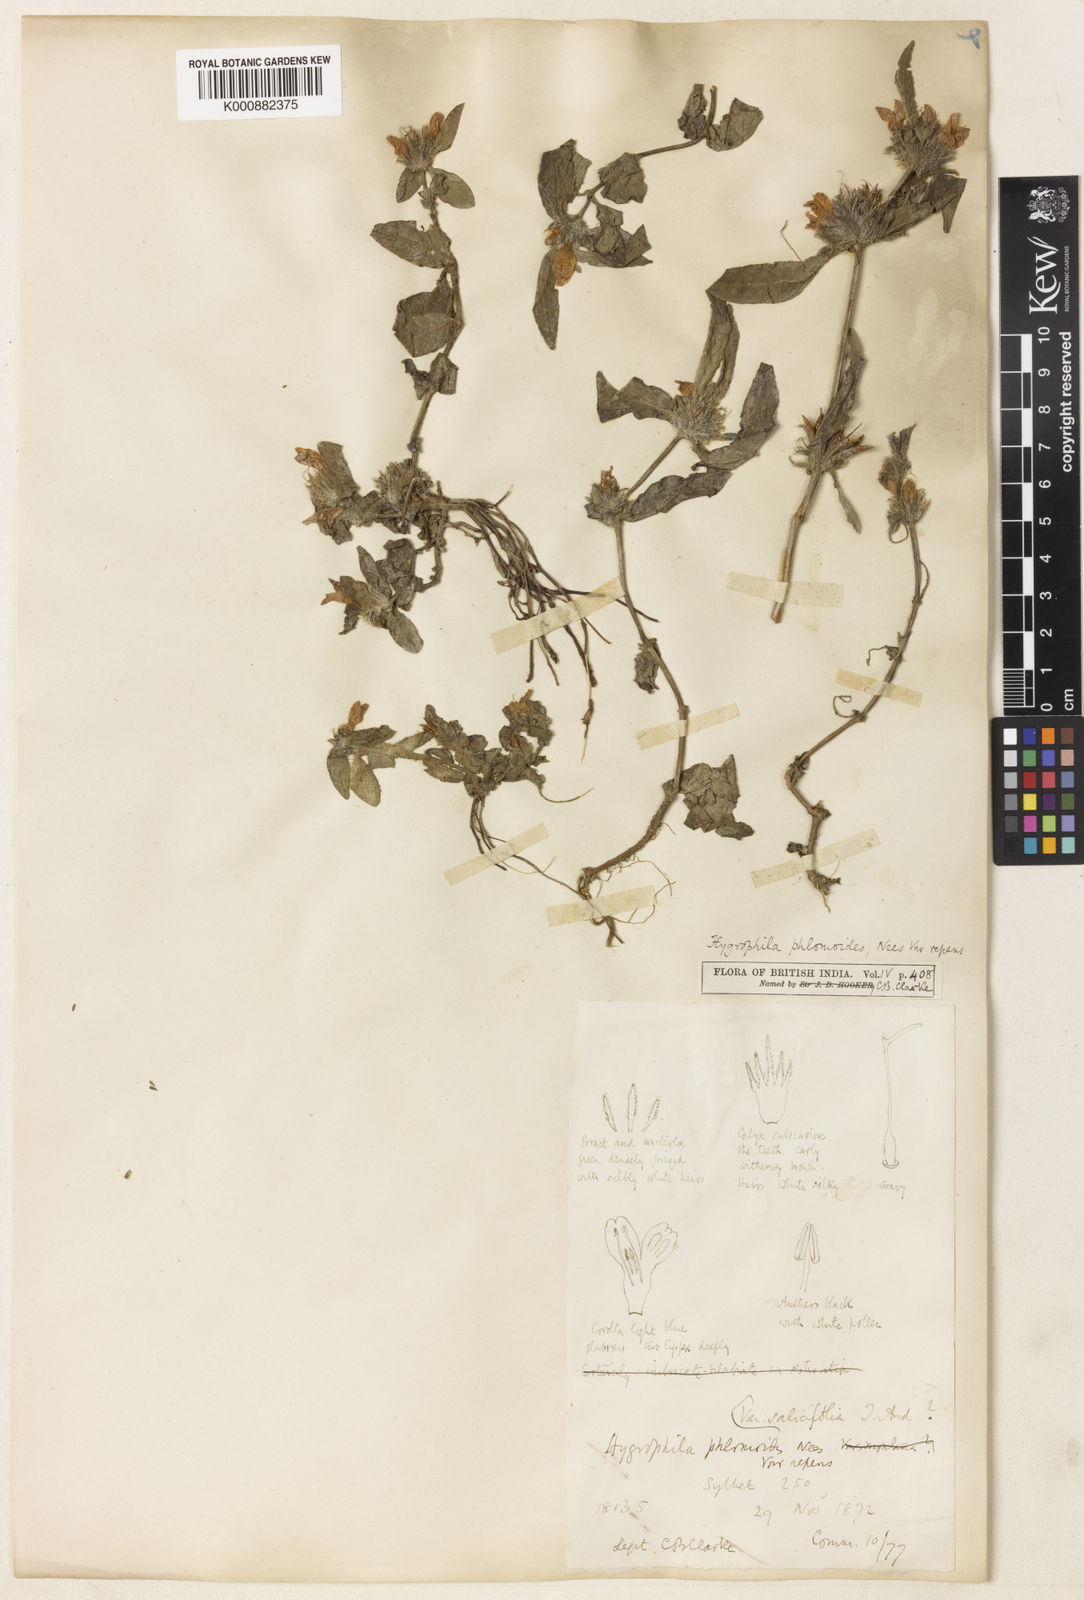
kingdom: Plantae
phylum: Tracheophyta
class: Magnoliopsida
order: Lamiales
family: Acanthaceae
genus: Hygrophila
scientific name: Hygrophila phlomoides
